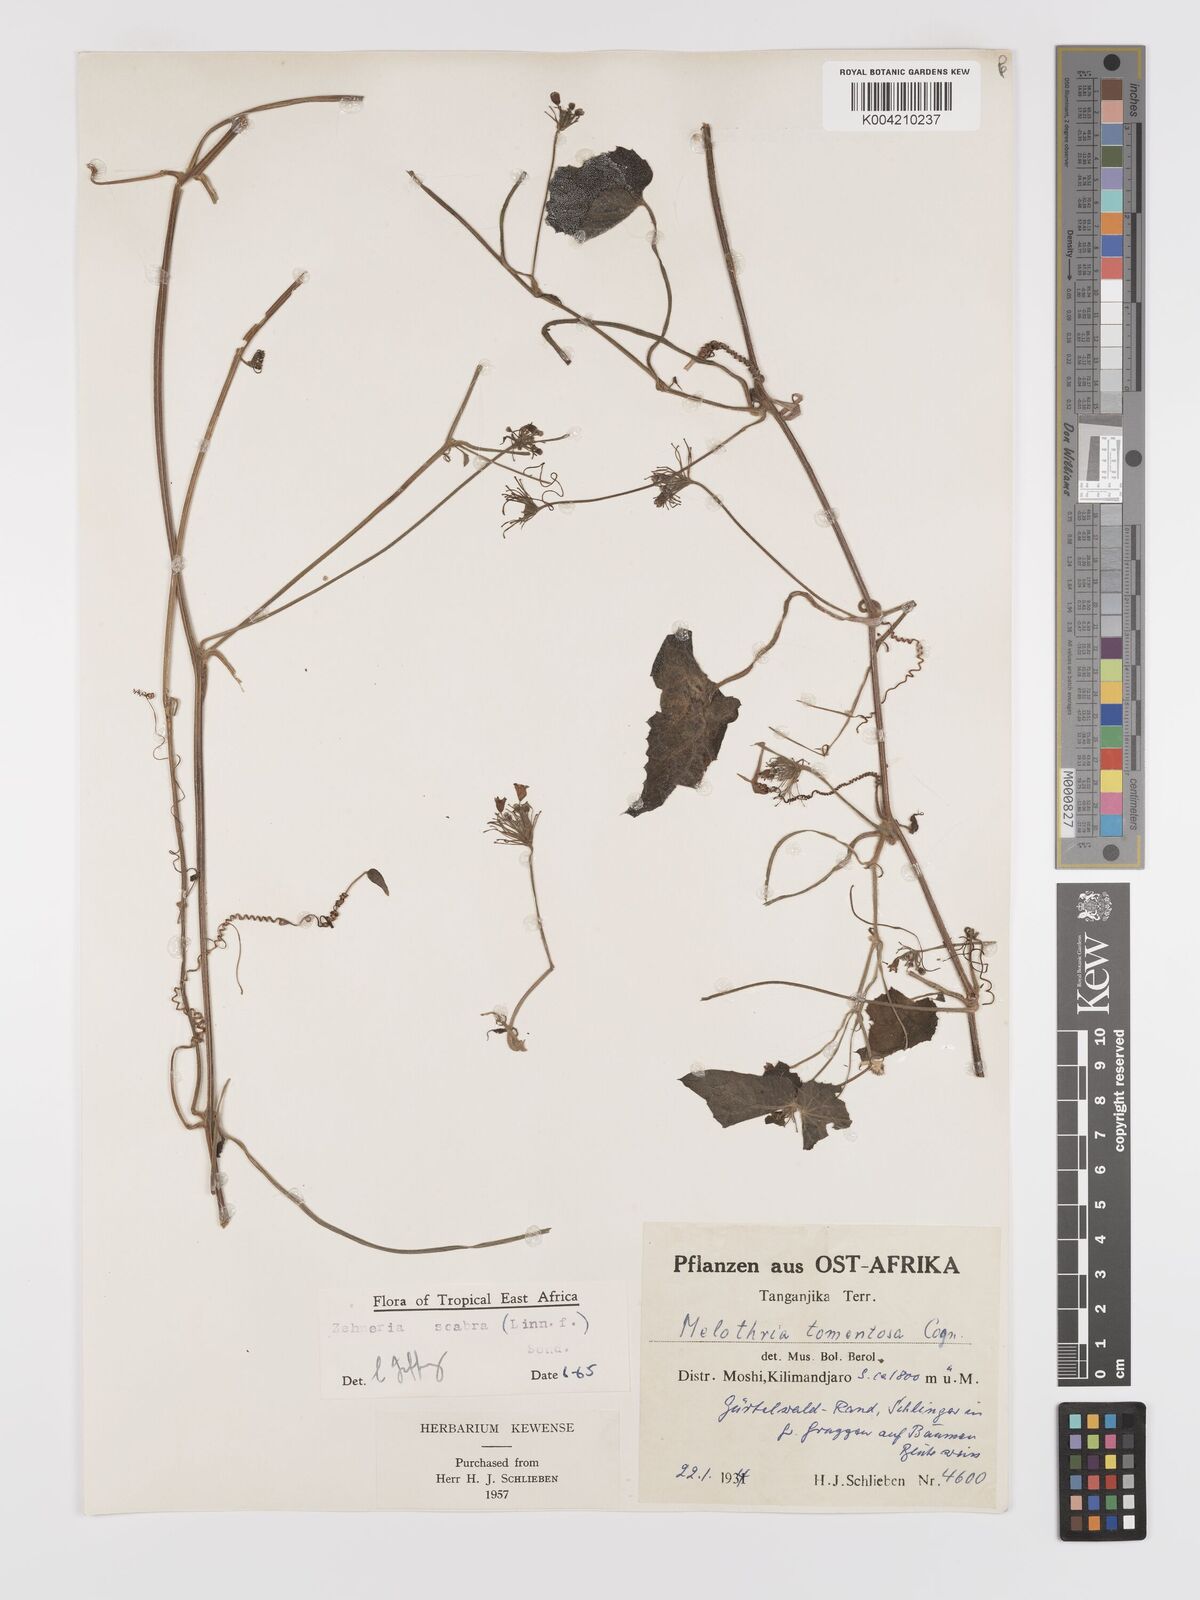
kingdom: Plantae
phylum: Tracheophyta
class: Magnoliopsida
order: Cucurbitales
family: Cucurbitaceae
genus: Zehneria
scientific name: Zehneria scabra
